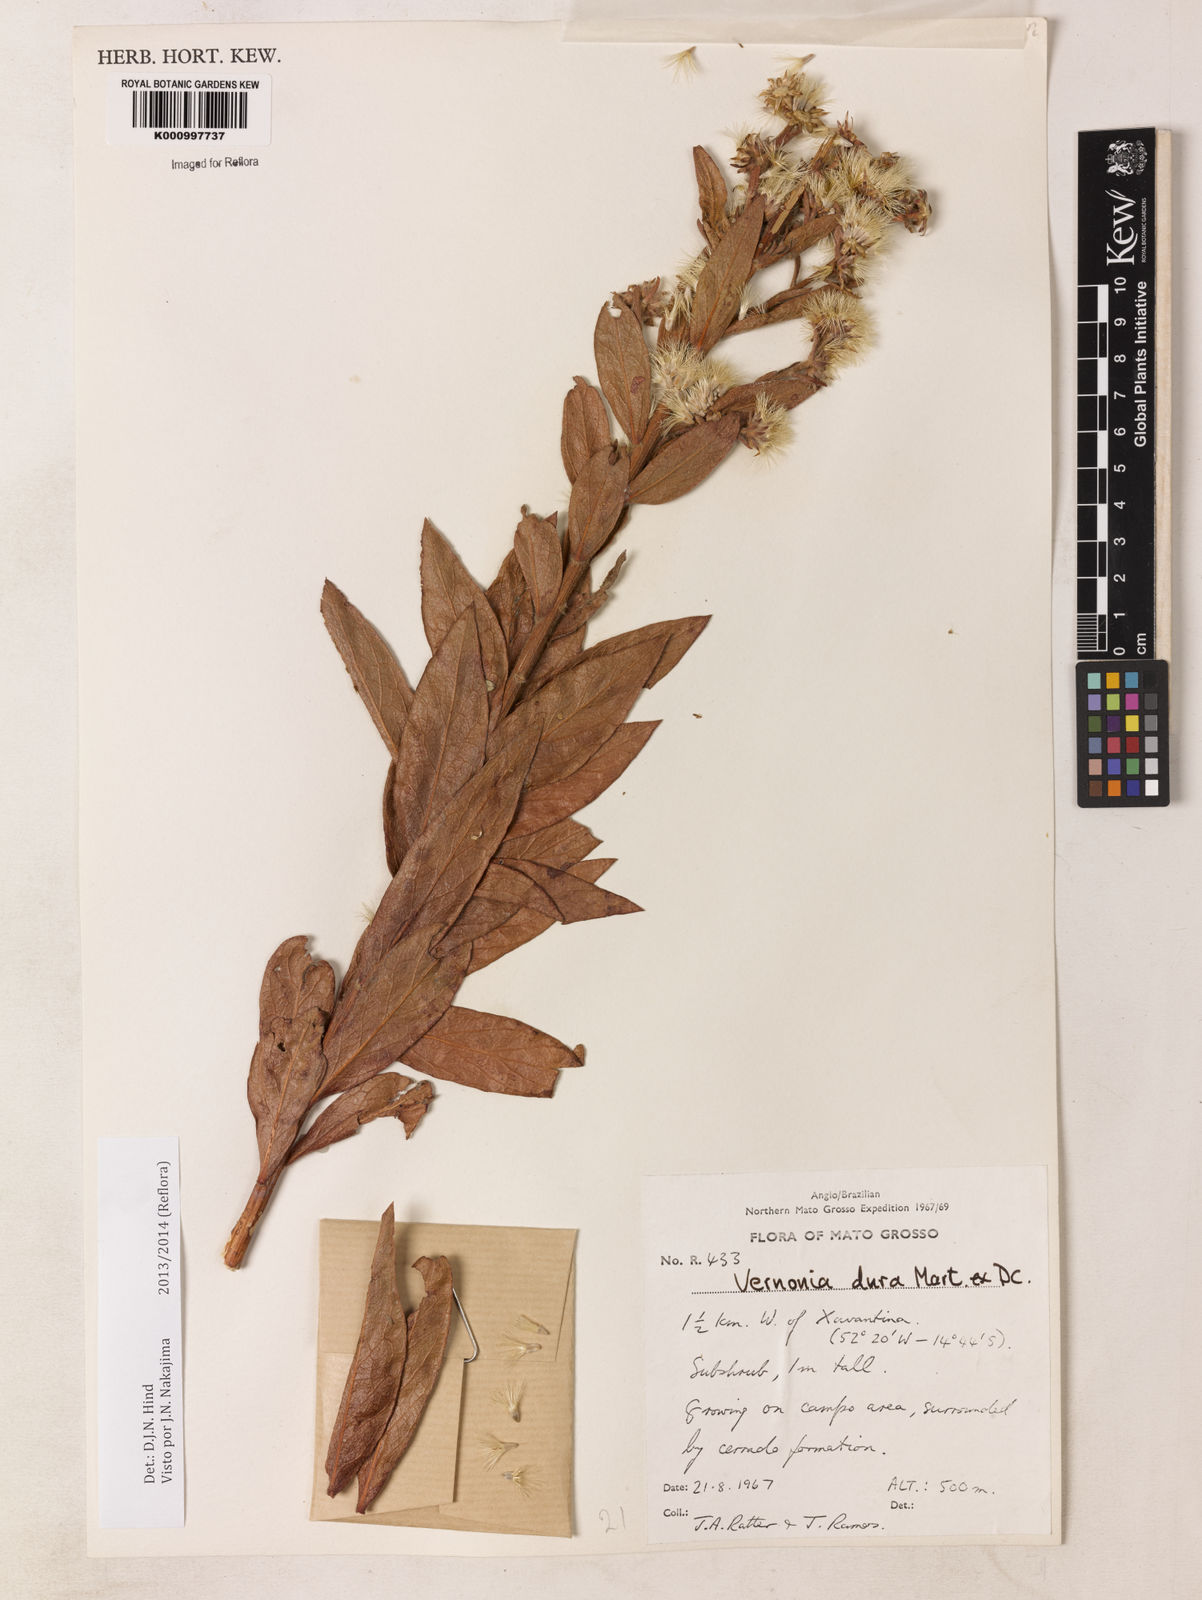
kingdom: Plantae
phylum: Tracheophyta
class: Magnoliopsida
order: Asterales
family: Asteraceae
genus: Lessingianthus
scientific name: Lessingianthus durus
